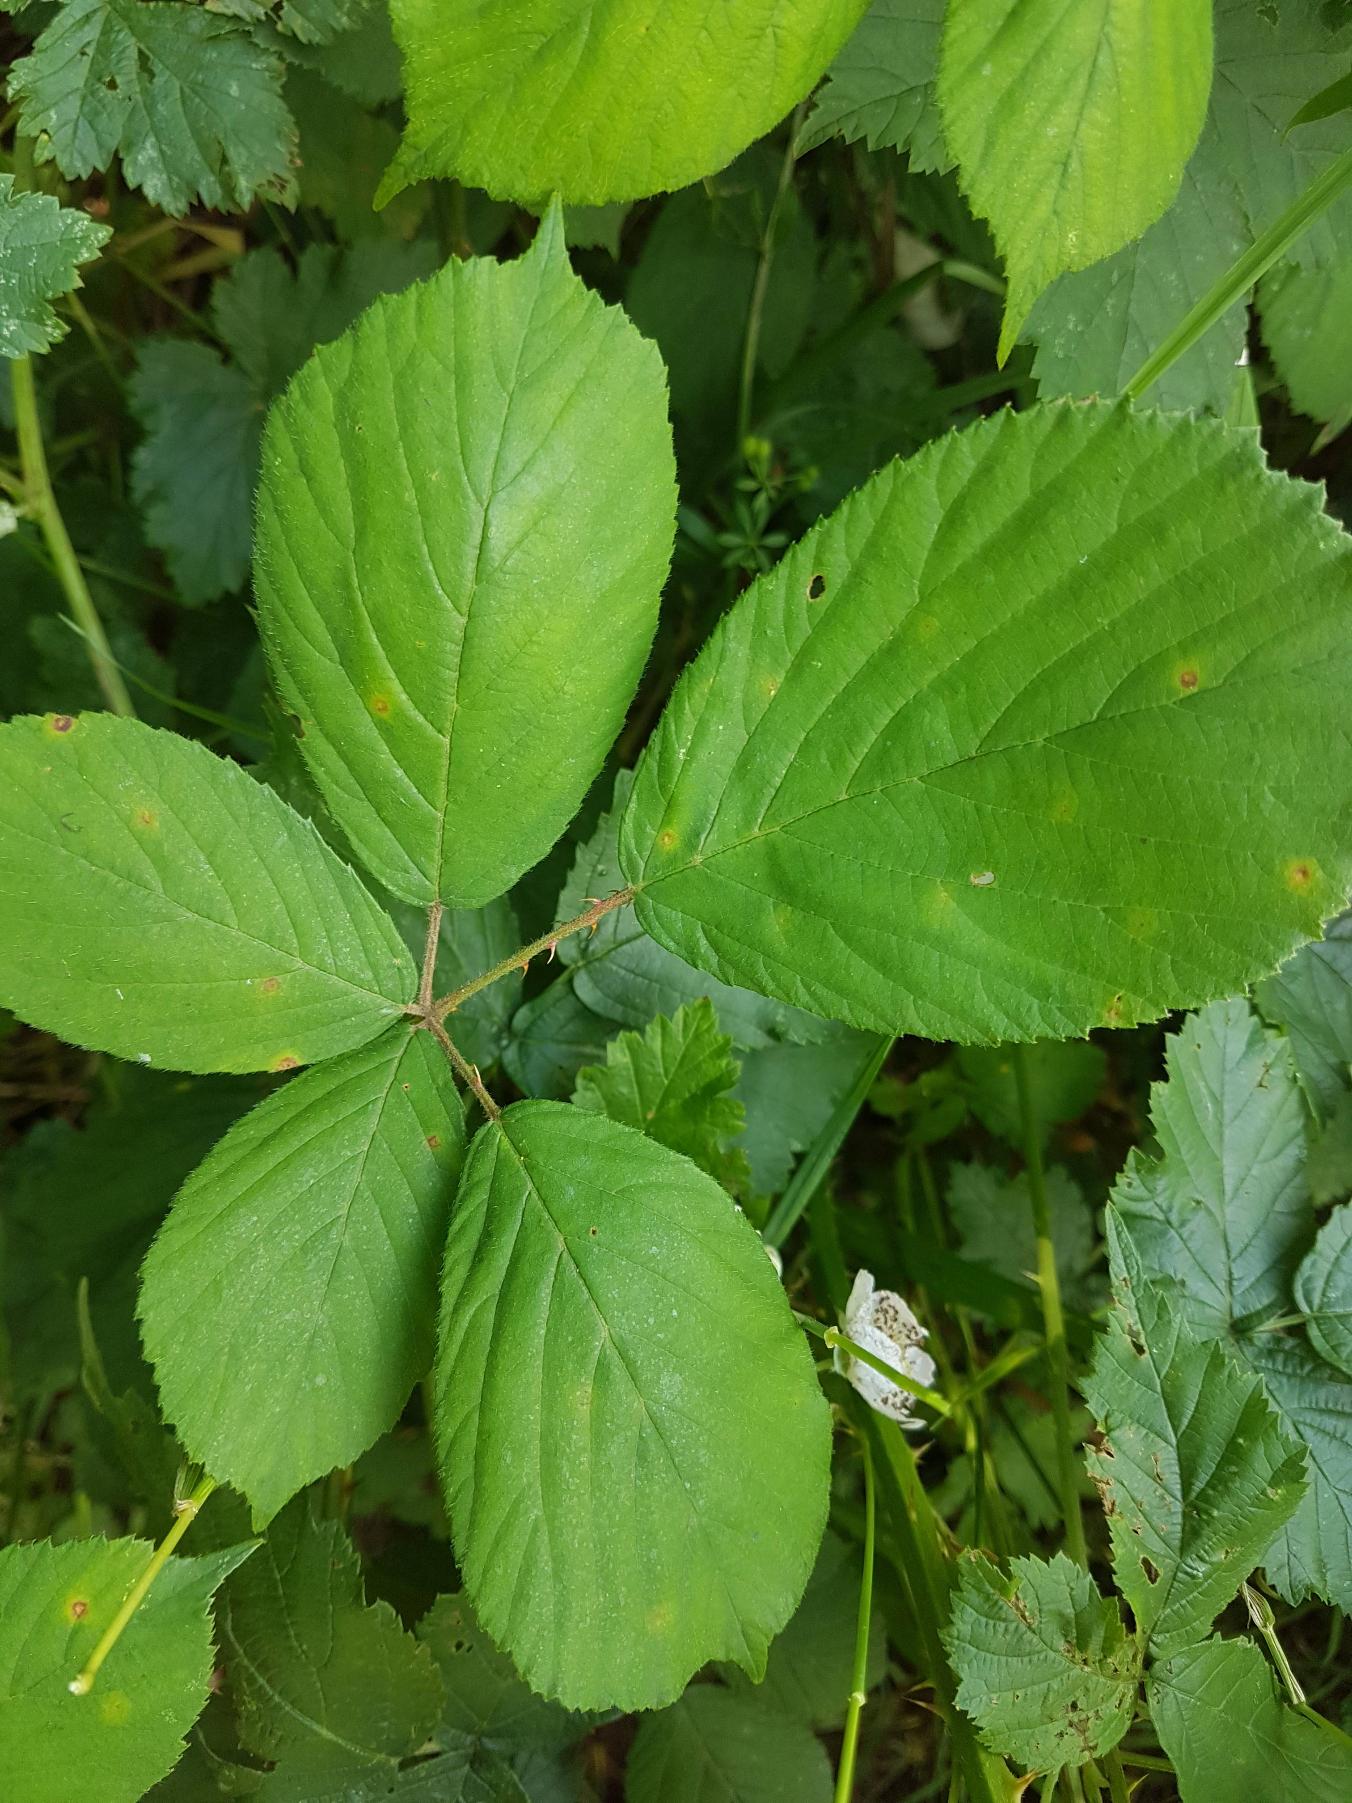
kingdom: Plantae
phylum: Tracheophyta
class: Magnoliopsida
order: Rosales
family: Rosaceae
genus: Rubus
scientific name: Rubus
